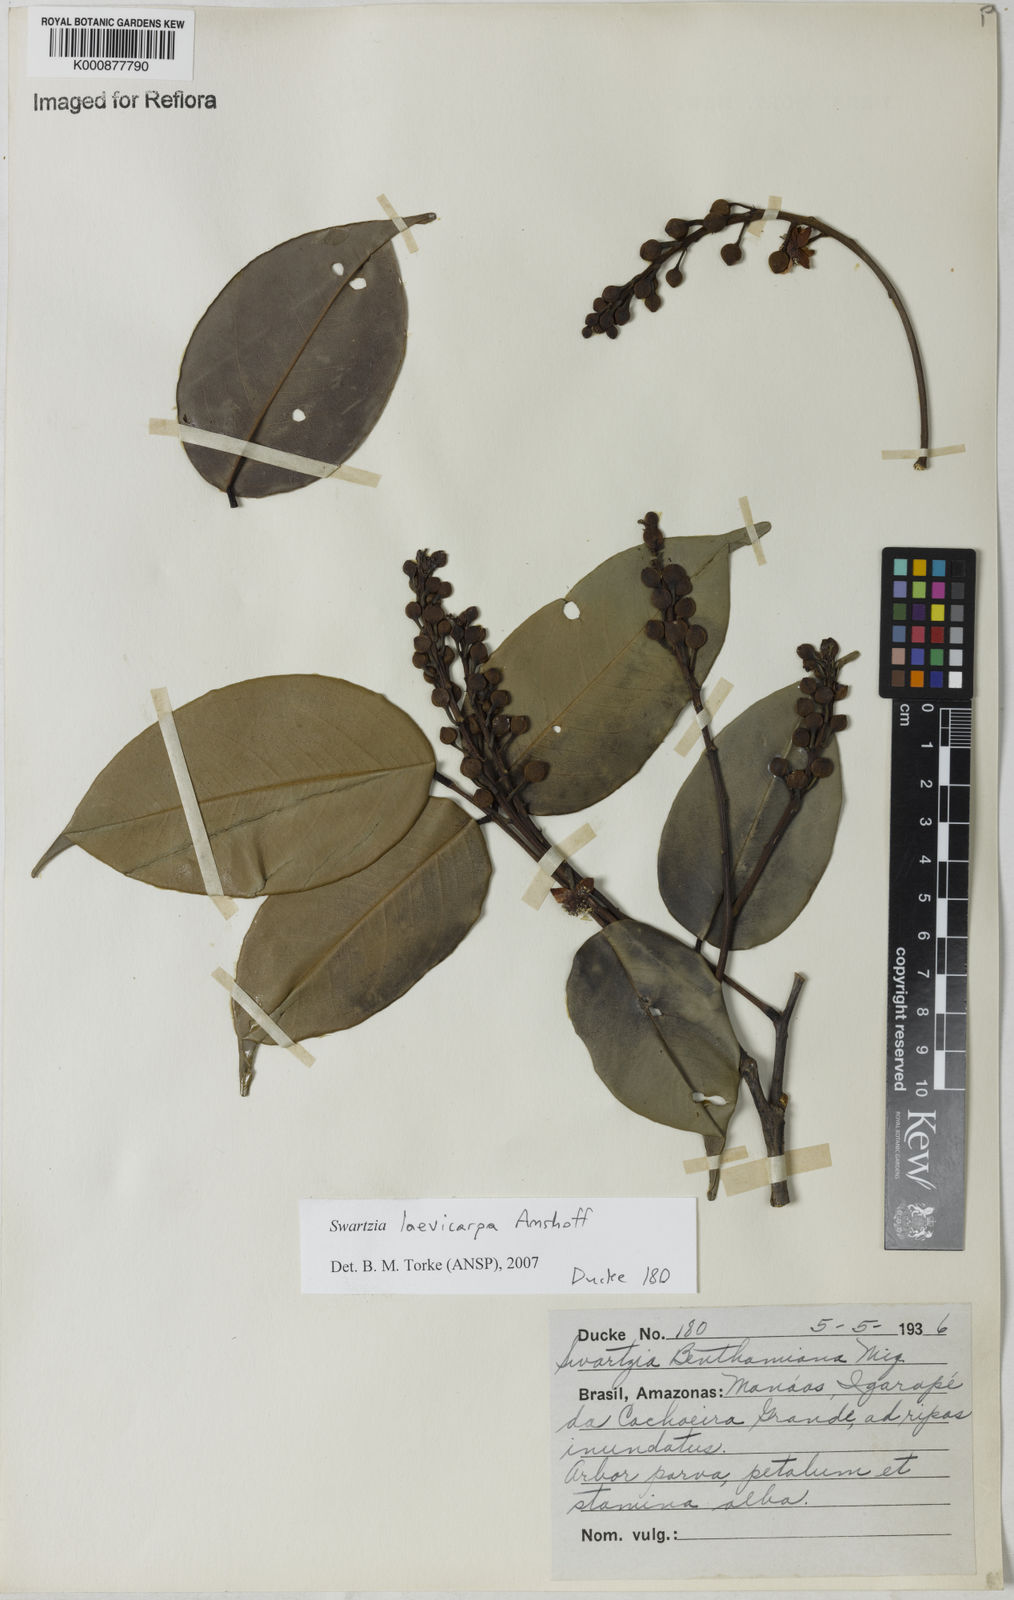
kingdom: Plantae
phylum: Tracheophyta
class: Magnoliopsida
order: Fabales
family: Fabaceae
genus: Swartzia
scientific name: Swartzia laevicarpa
